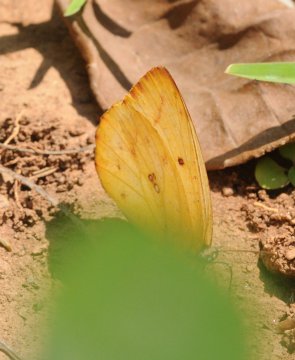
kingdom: Animalia
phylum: Arthropoda
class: Insecta
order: Lepidoptera
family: Pieridae
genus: Catopsilia
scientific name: Catopsilia florella
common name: African Migrant
